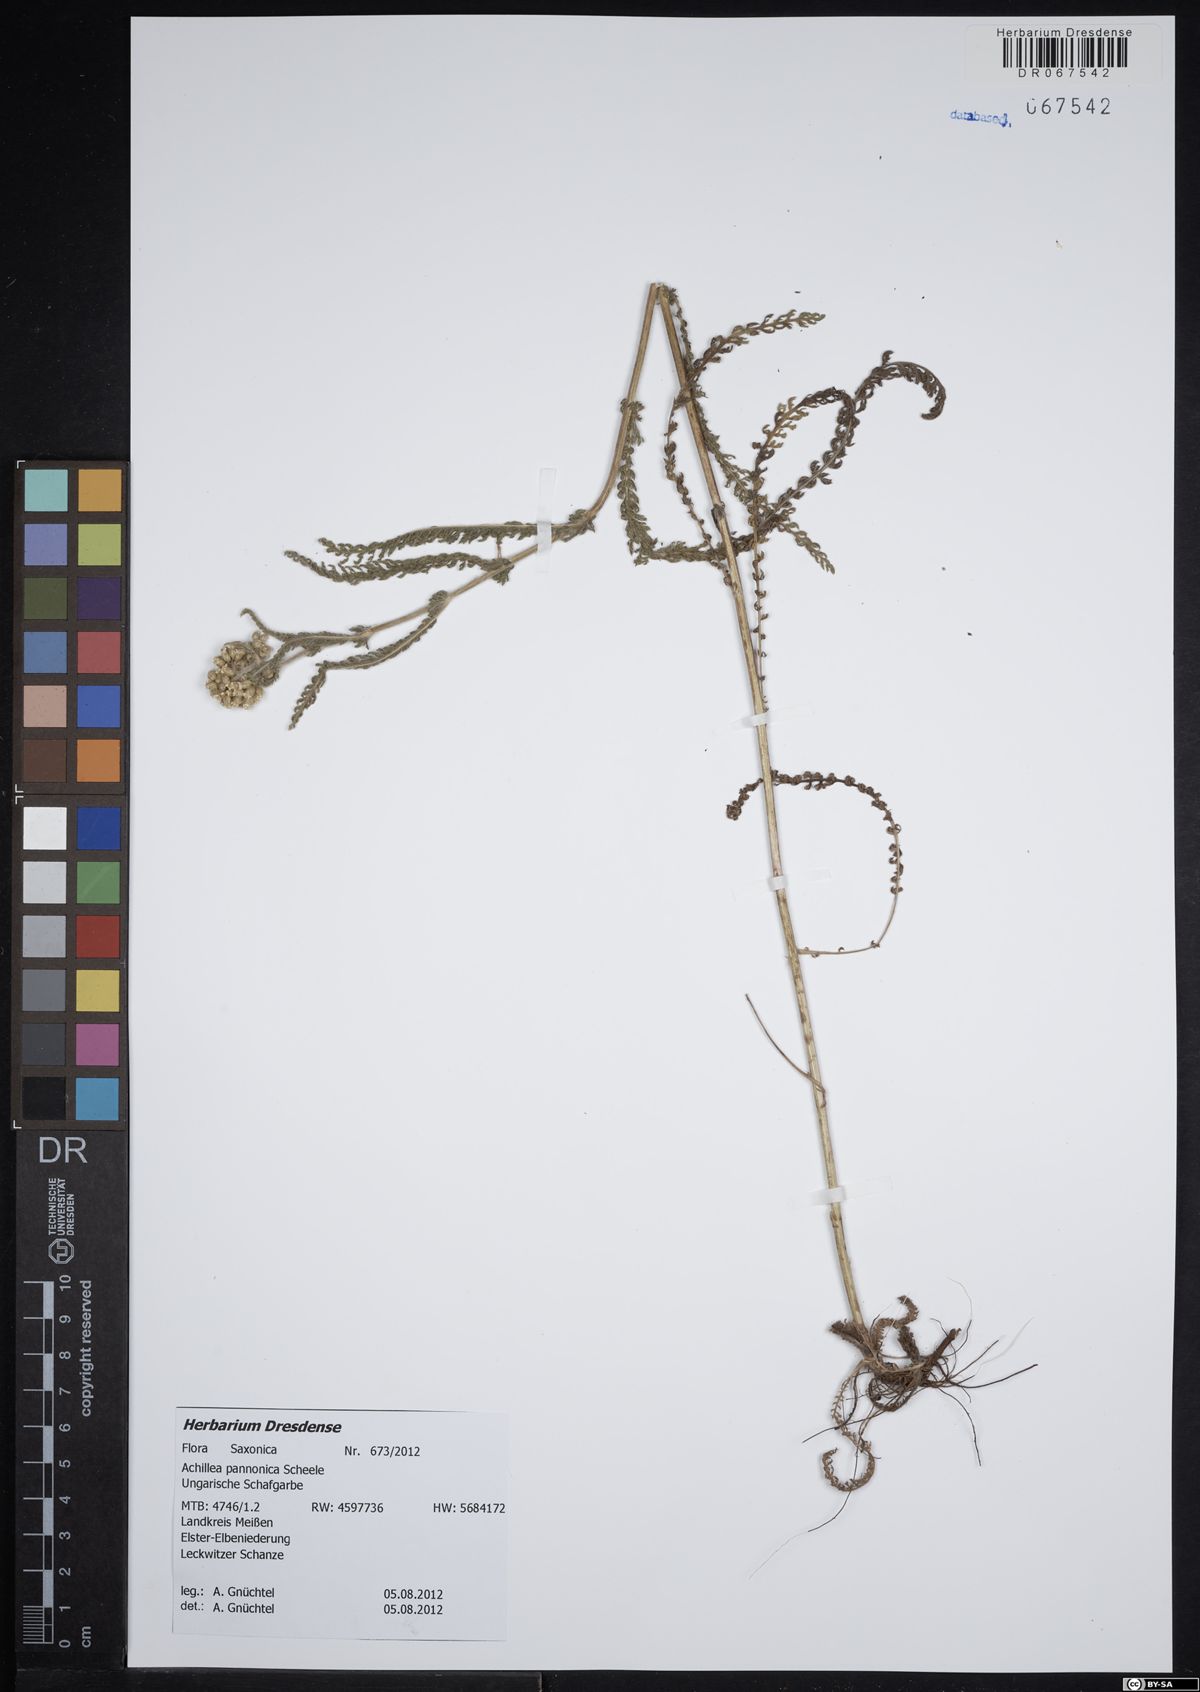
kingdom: Plantae
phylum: Tracheophyta
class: Magnoliopsida
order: Asterales
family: Asteraceae
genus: Achillea
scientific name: Achillea pannonica
